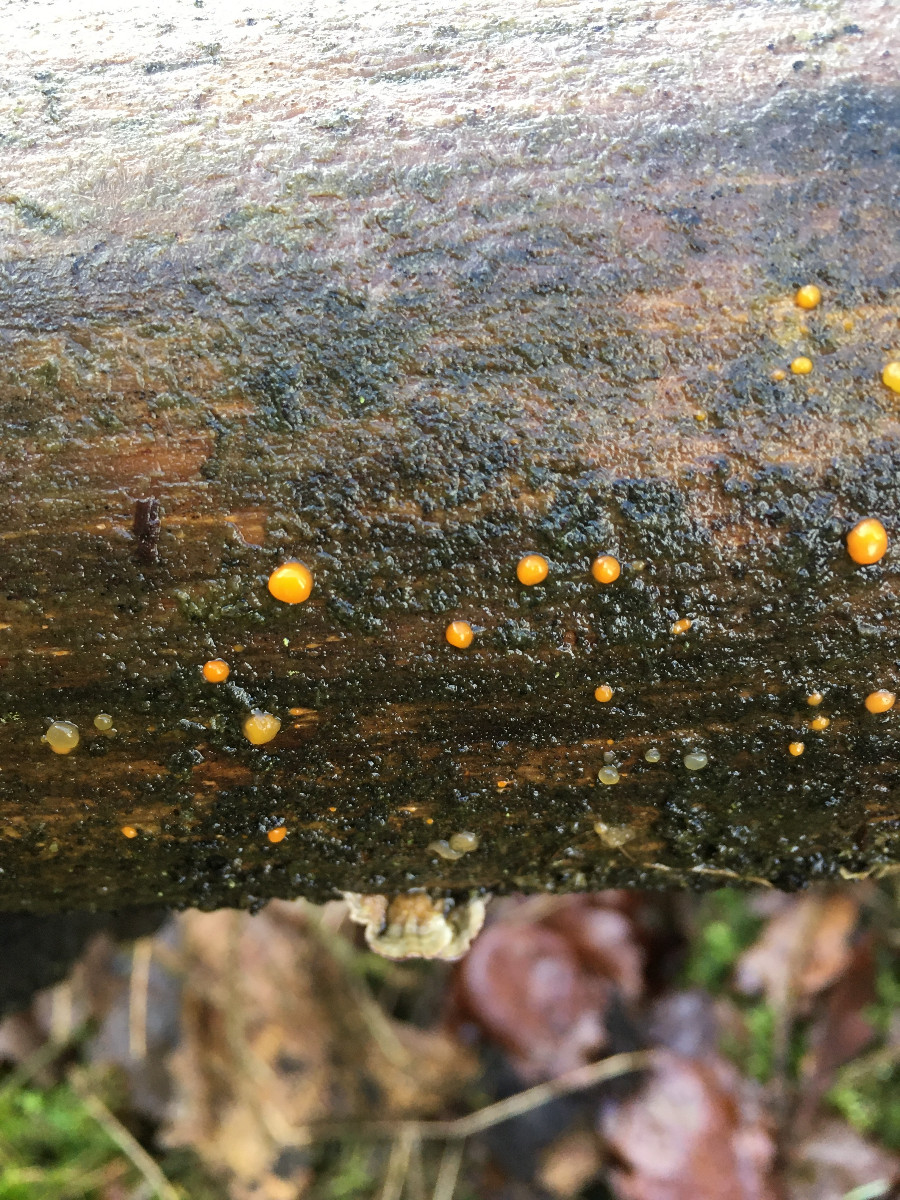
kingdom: Fungi
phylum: Basidiomycota
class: Dacrymycetes
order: Dacrymycetales
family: Dacrymycetaceae
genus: Dacrymyces
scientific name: Dacrymyces stillatus
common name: almindelig tåresvamp
